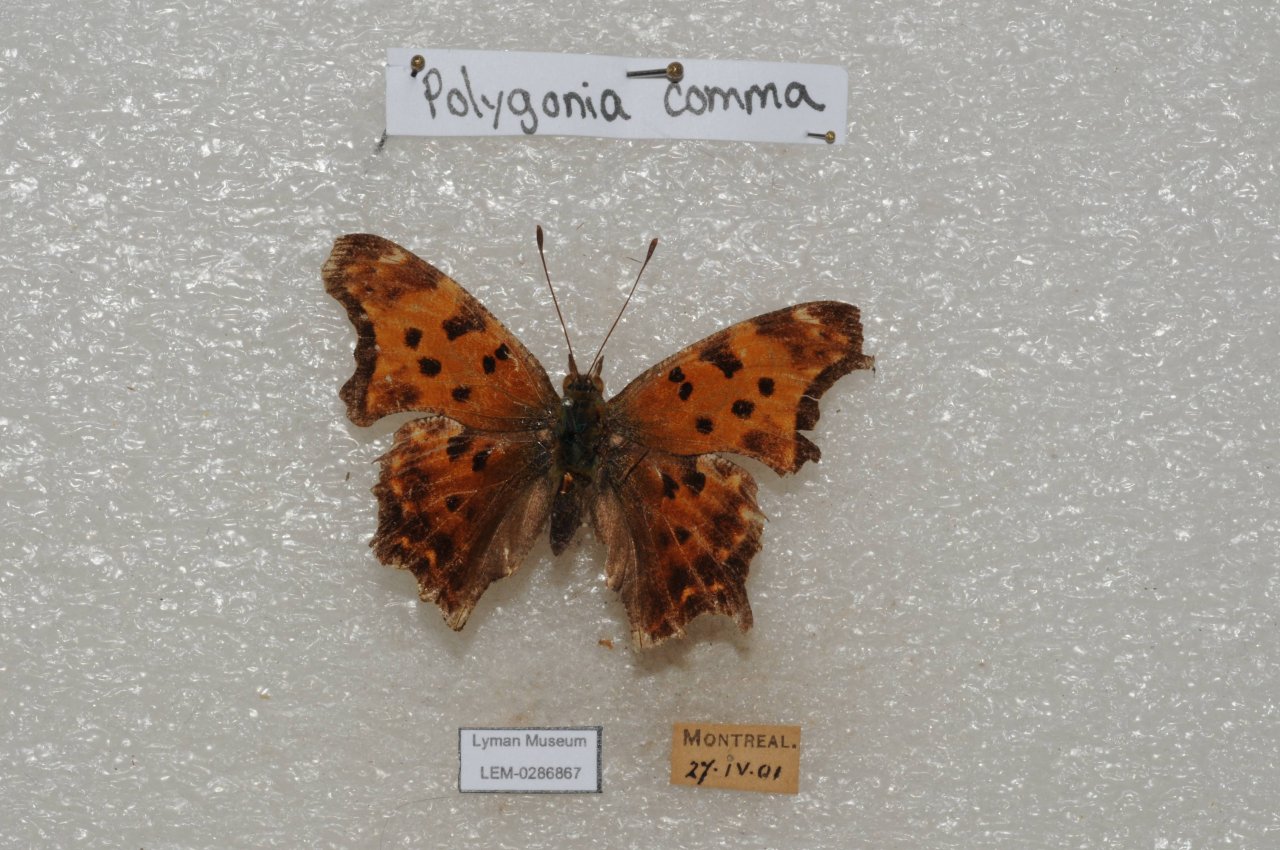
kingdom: Animalia
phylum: Arthropoda
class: Insecta
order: Lepidoptera
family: Nymphalidae
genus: Polygonia
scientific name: Polygonia comma
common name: Eastern Comma
